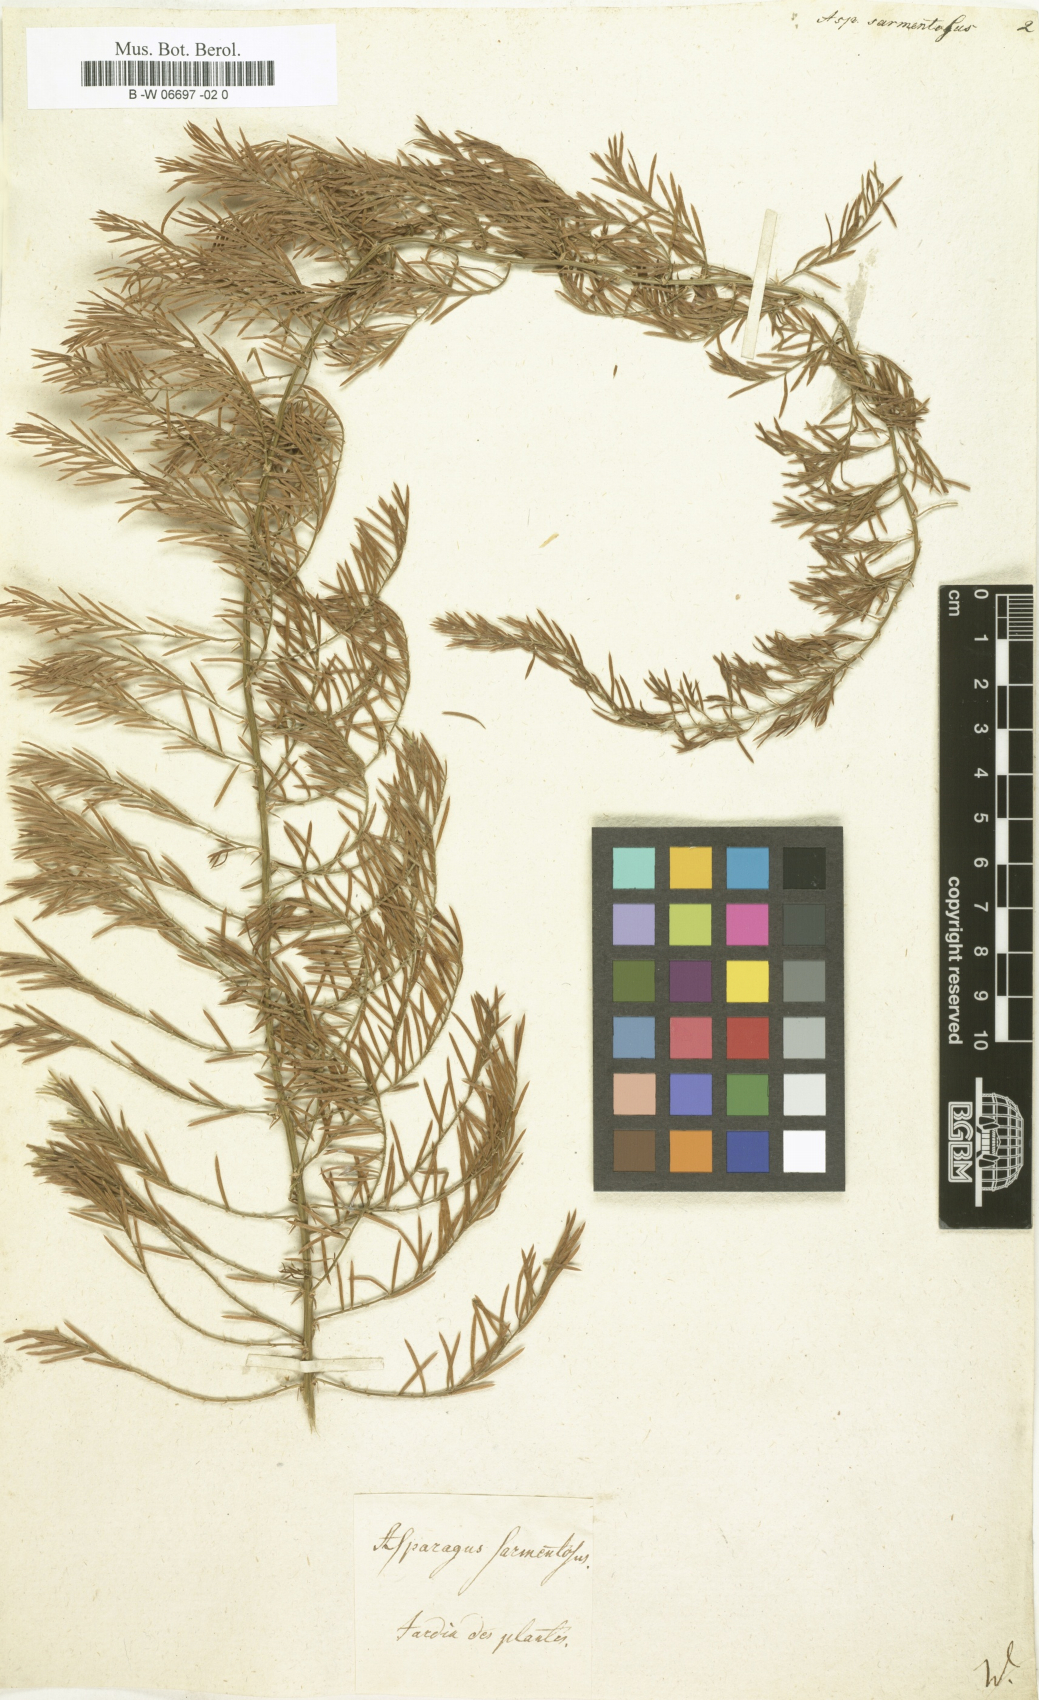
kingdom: Plantae
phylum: Tracheophyta
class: Liliopsida
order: Asparagales
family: Asparagaceae
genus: Asparagus
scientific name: Asparagus sarmentosus
